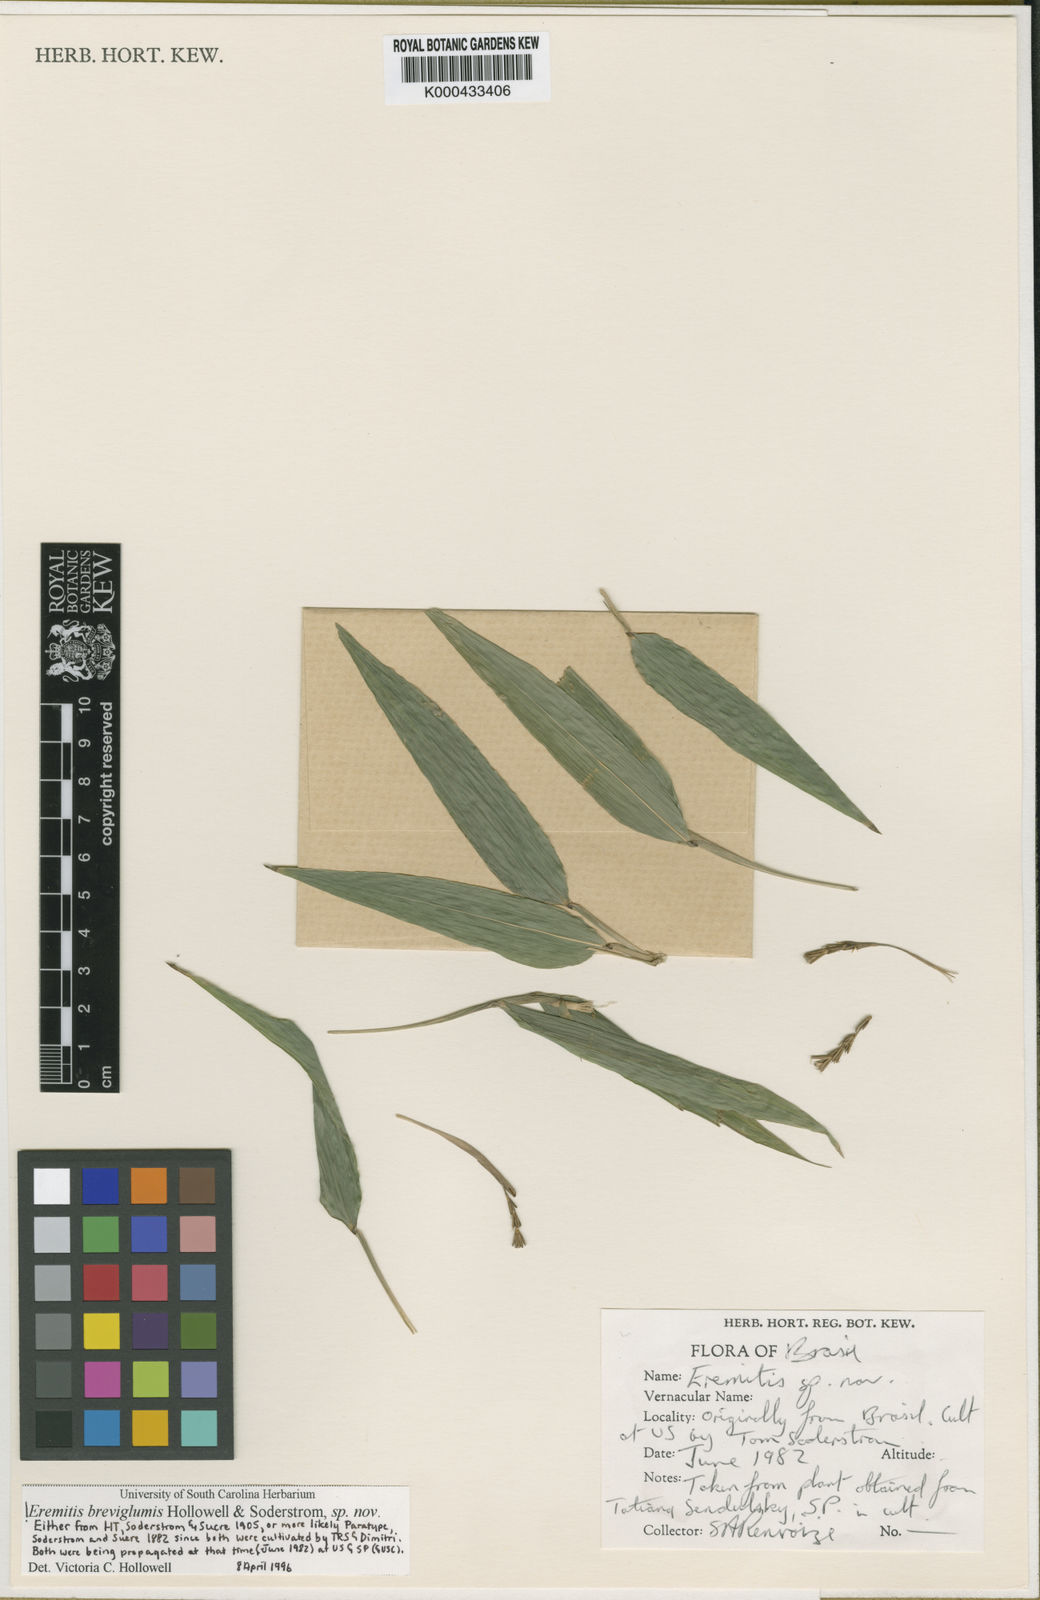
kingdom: Plantae
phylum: Tracheophyta
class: Liliopsida
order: Poales
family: Poaceae
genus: Eremitis
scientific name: Eremitis
